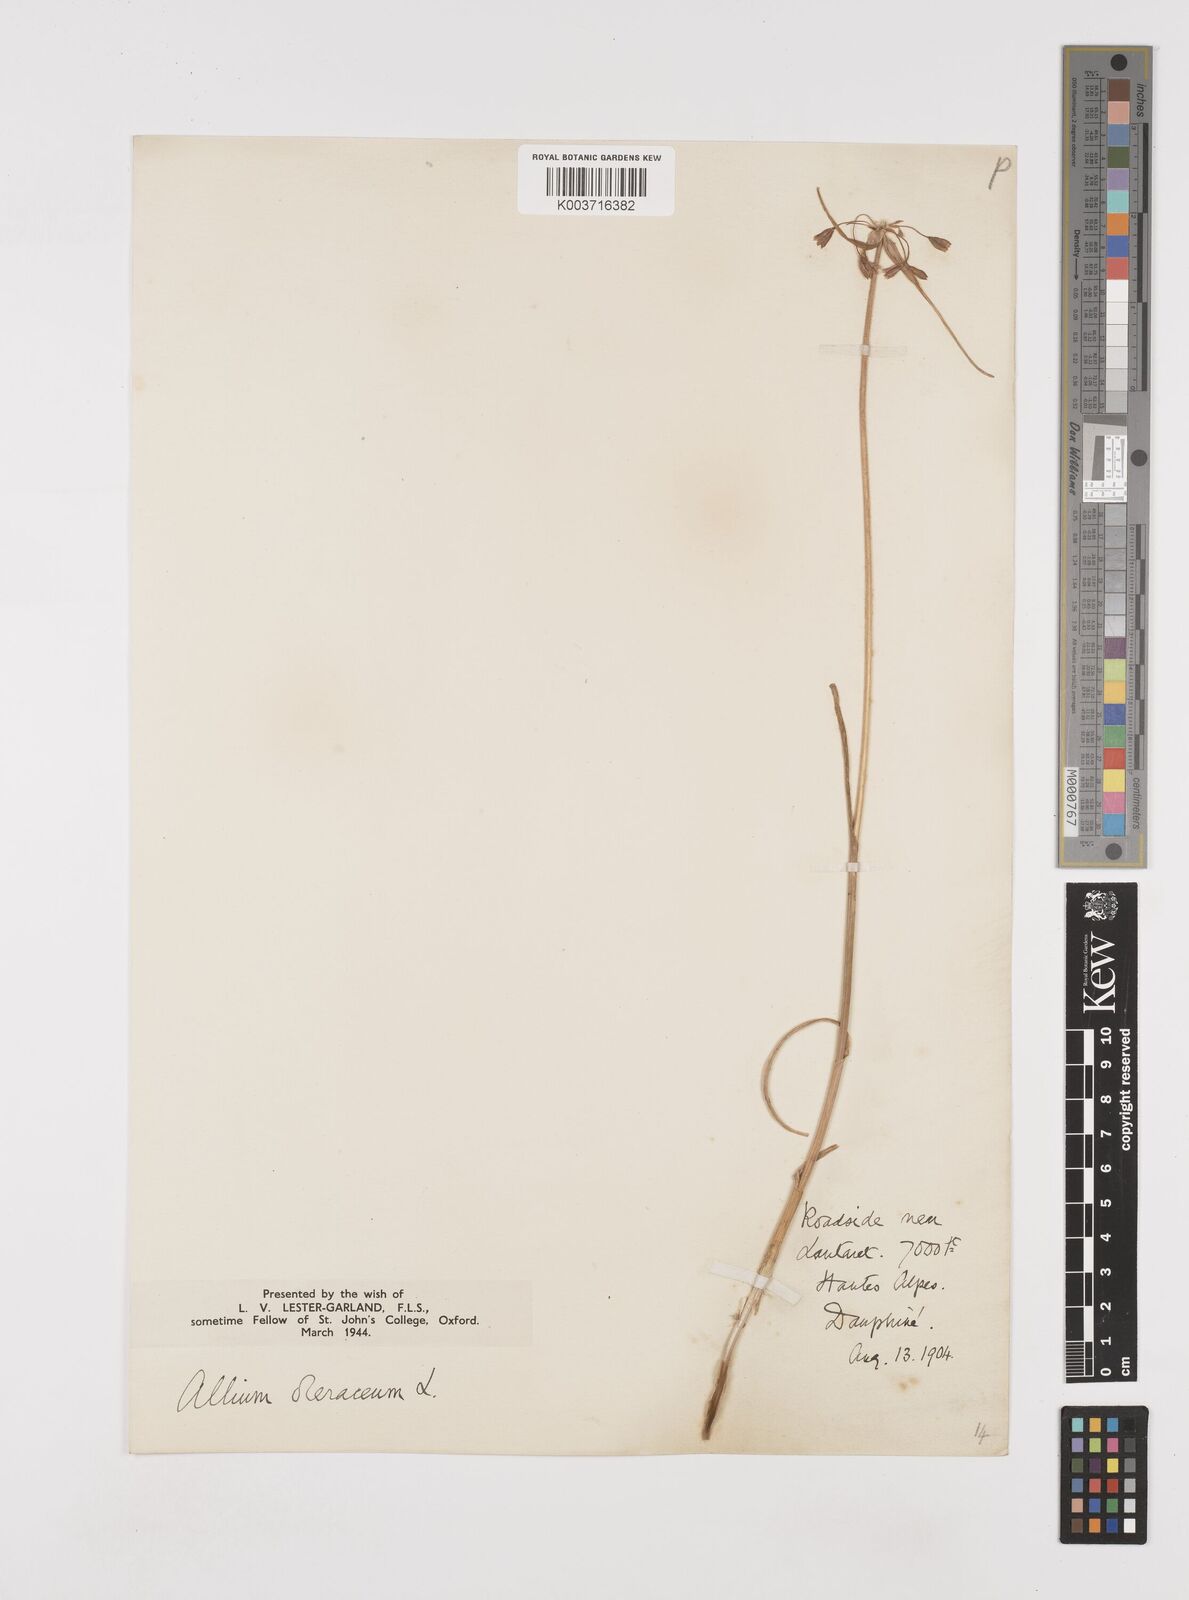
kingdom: Plantae
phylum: Tracheophyta
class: Liliopsida
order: Asparagales
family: Amaryllidaceae
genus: Allium
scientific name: Allium oleraceum
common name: Field garlic
